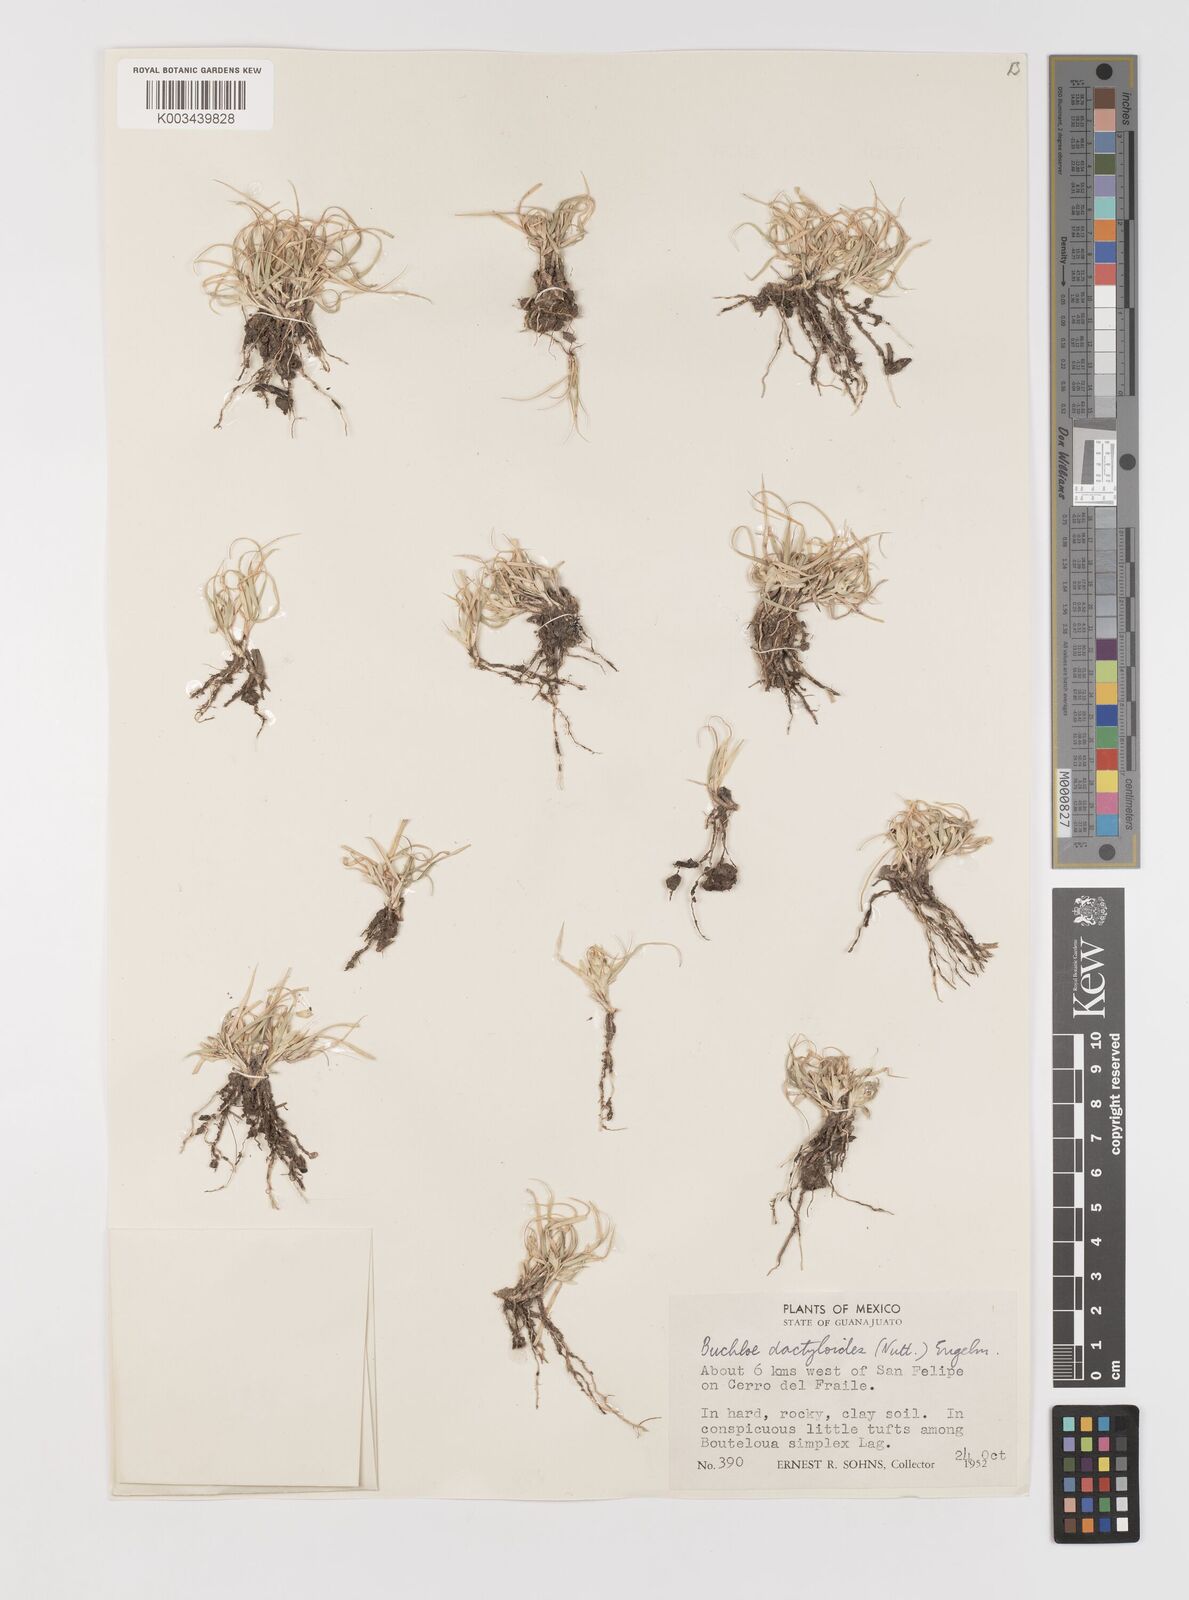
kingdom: Plantae
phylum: Tracheophyta
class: Liliopsida
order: Poales
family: Poaceae
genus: Bouteloua
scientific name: Bouteloua dactyloides
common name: Buffalo grass
